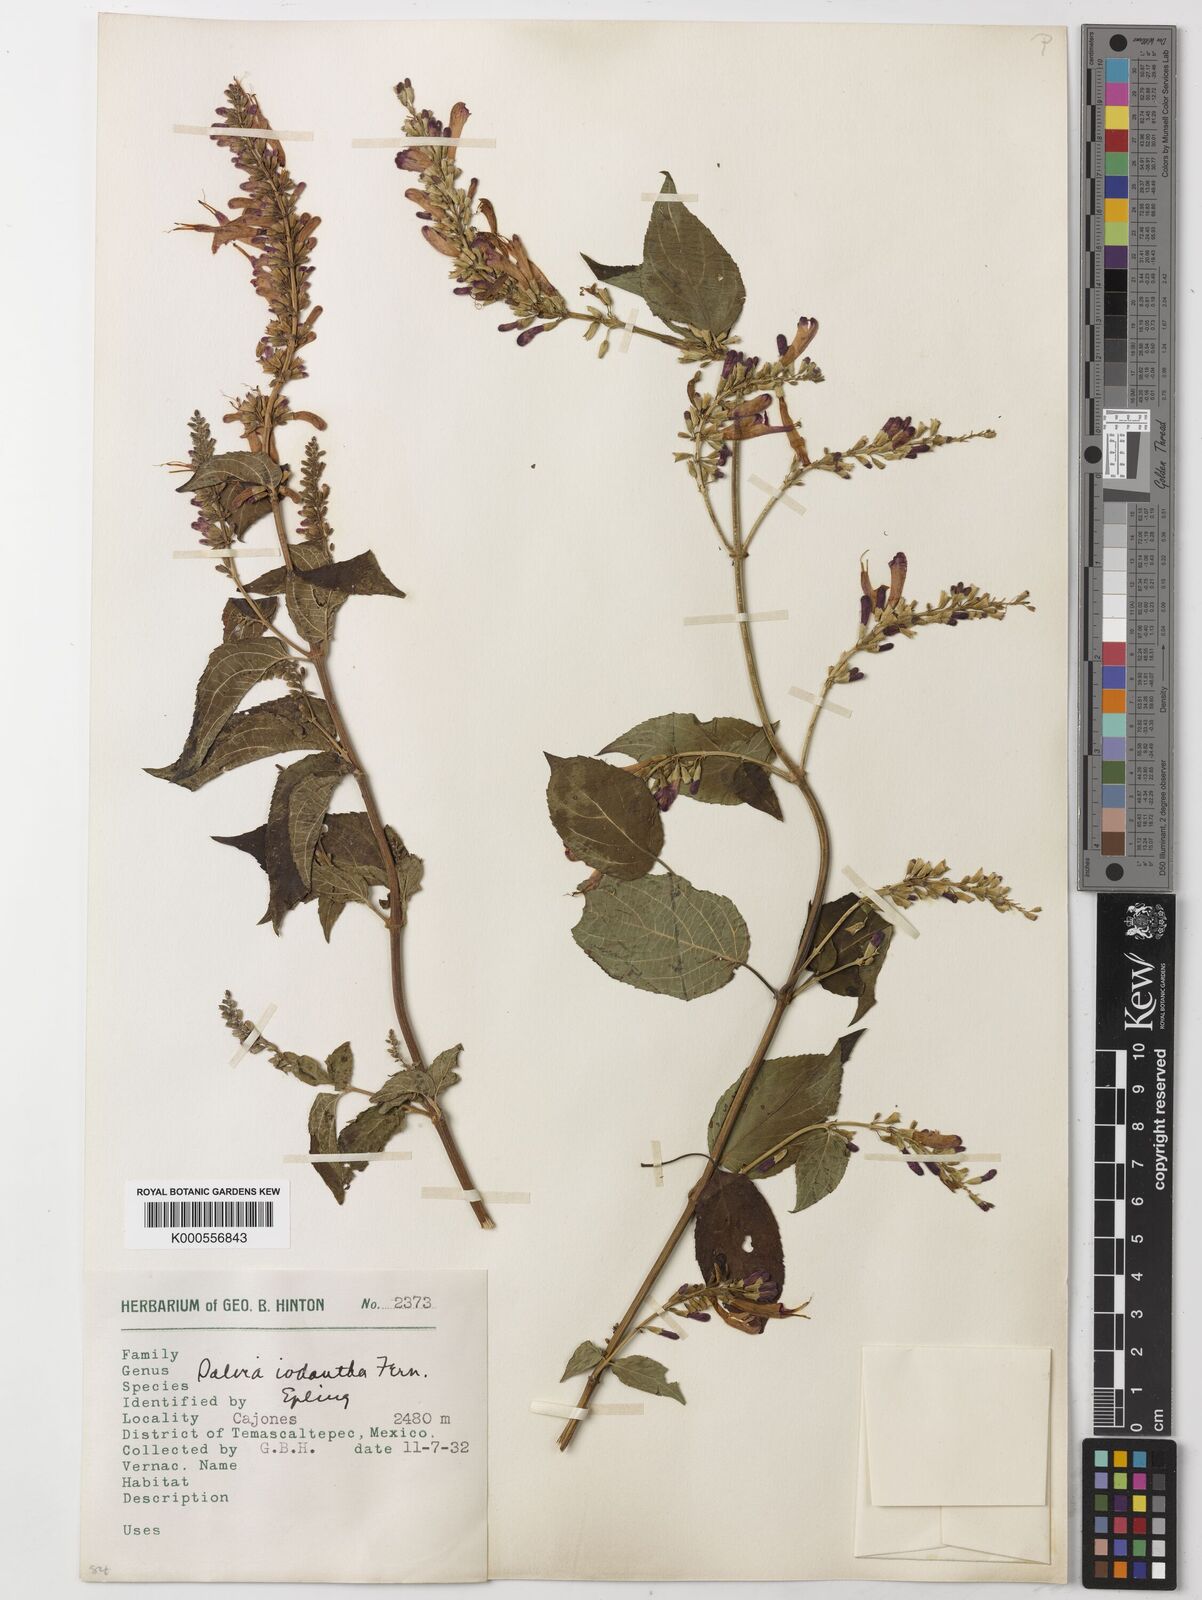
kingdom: Plantae
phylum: Tracheophyta
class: Magnoliopsida
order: Lamiales
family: Lamiaceae
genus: Salvia
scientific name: Salvia iodantha
